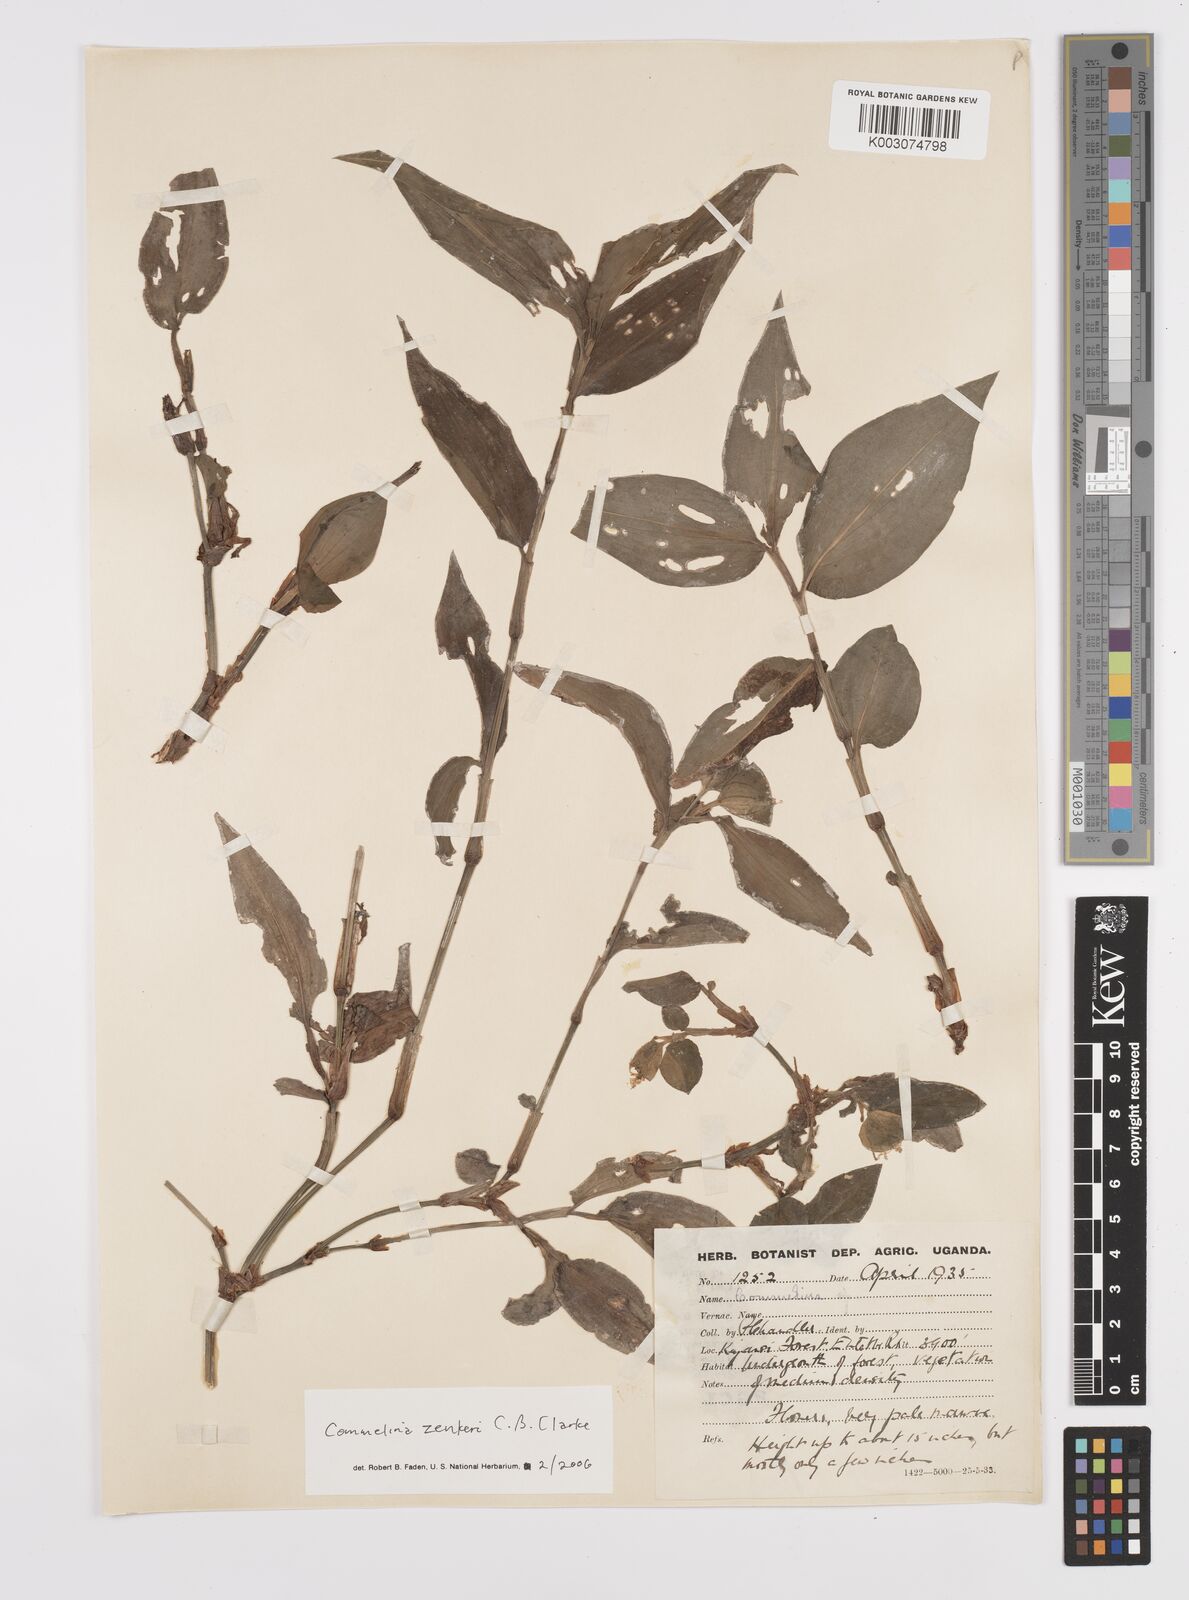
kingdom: Plantae
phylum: Tracheophyta
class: Liliopsida
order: Commelinales
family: Commelinaceae
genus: Commelina
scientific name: Commelina zenkeri
